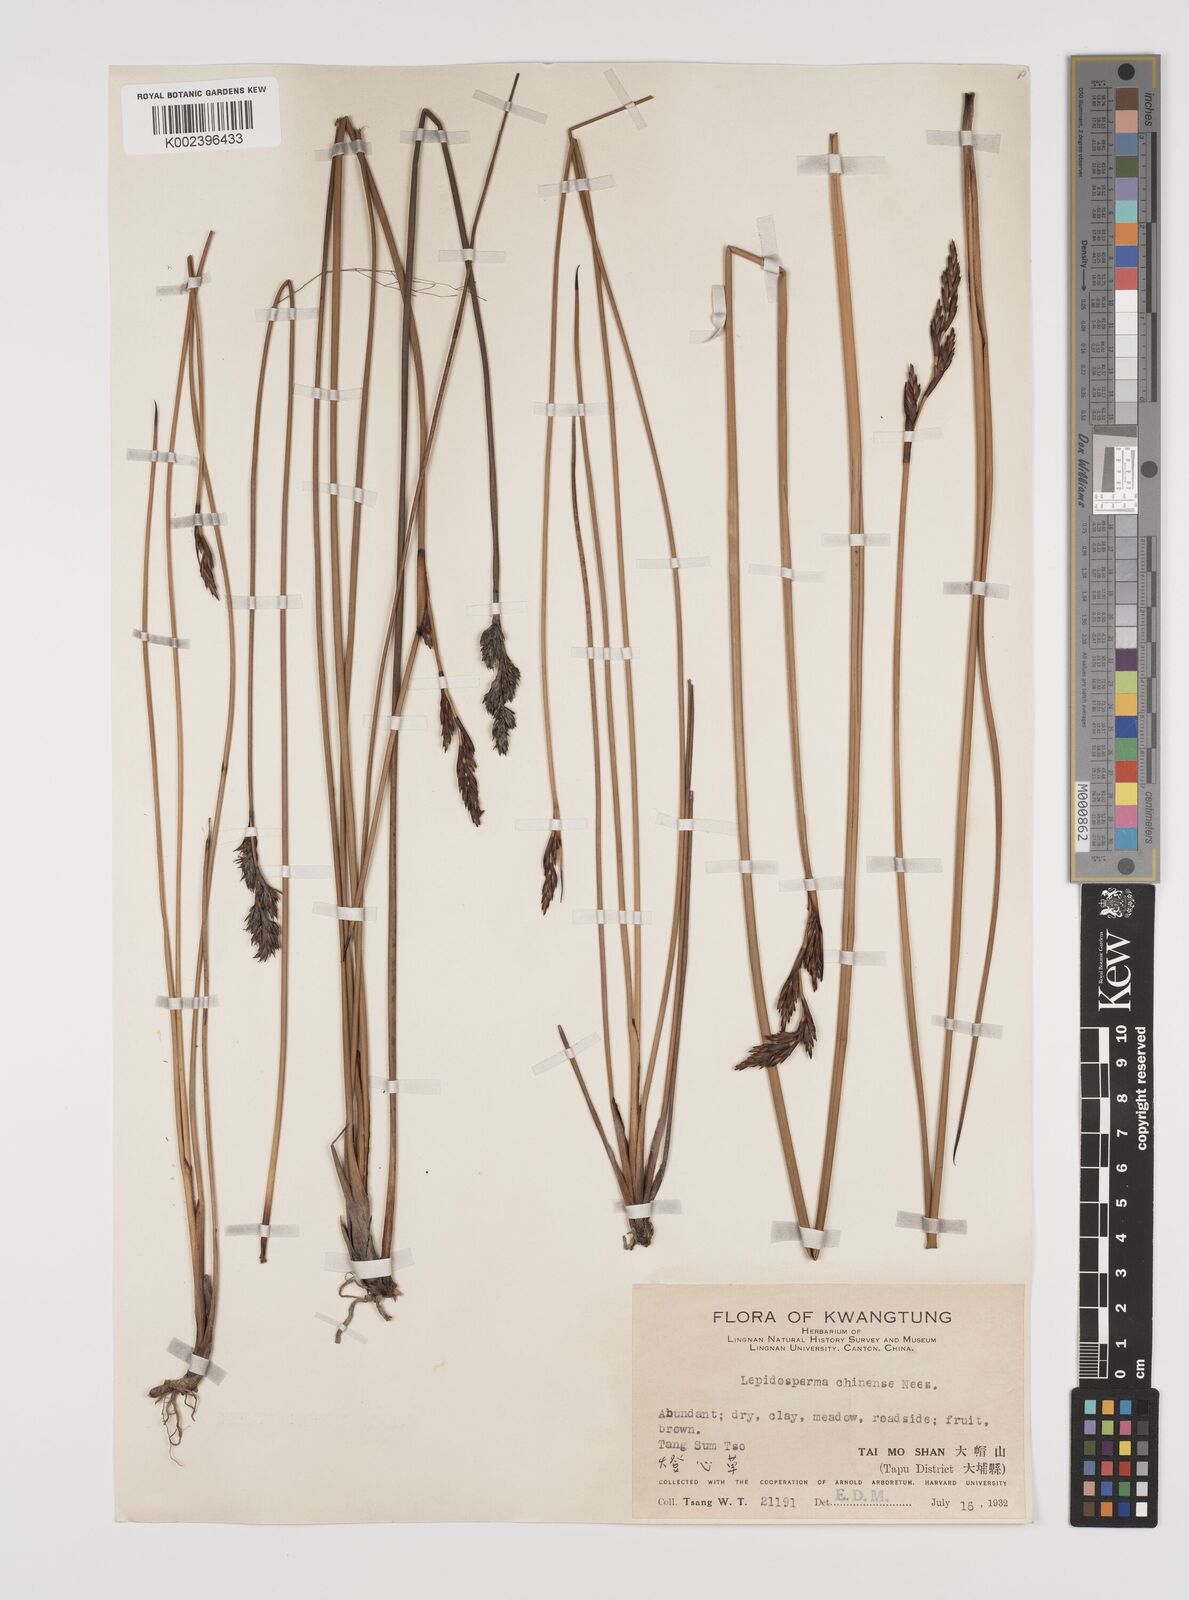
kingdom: Plantae
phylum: Tracheophyta
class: Liliopsida
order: Poales
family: Cyperaceae
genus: Lepidosperma
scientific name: Lepidosperma chinense
